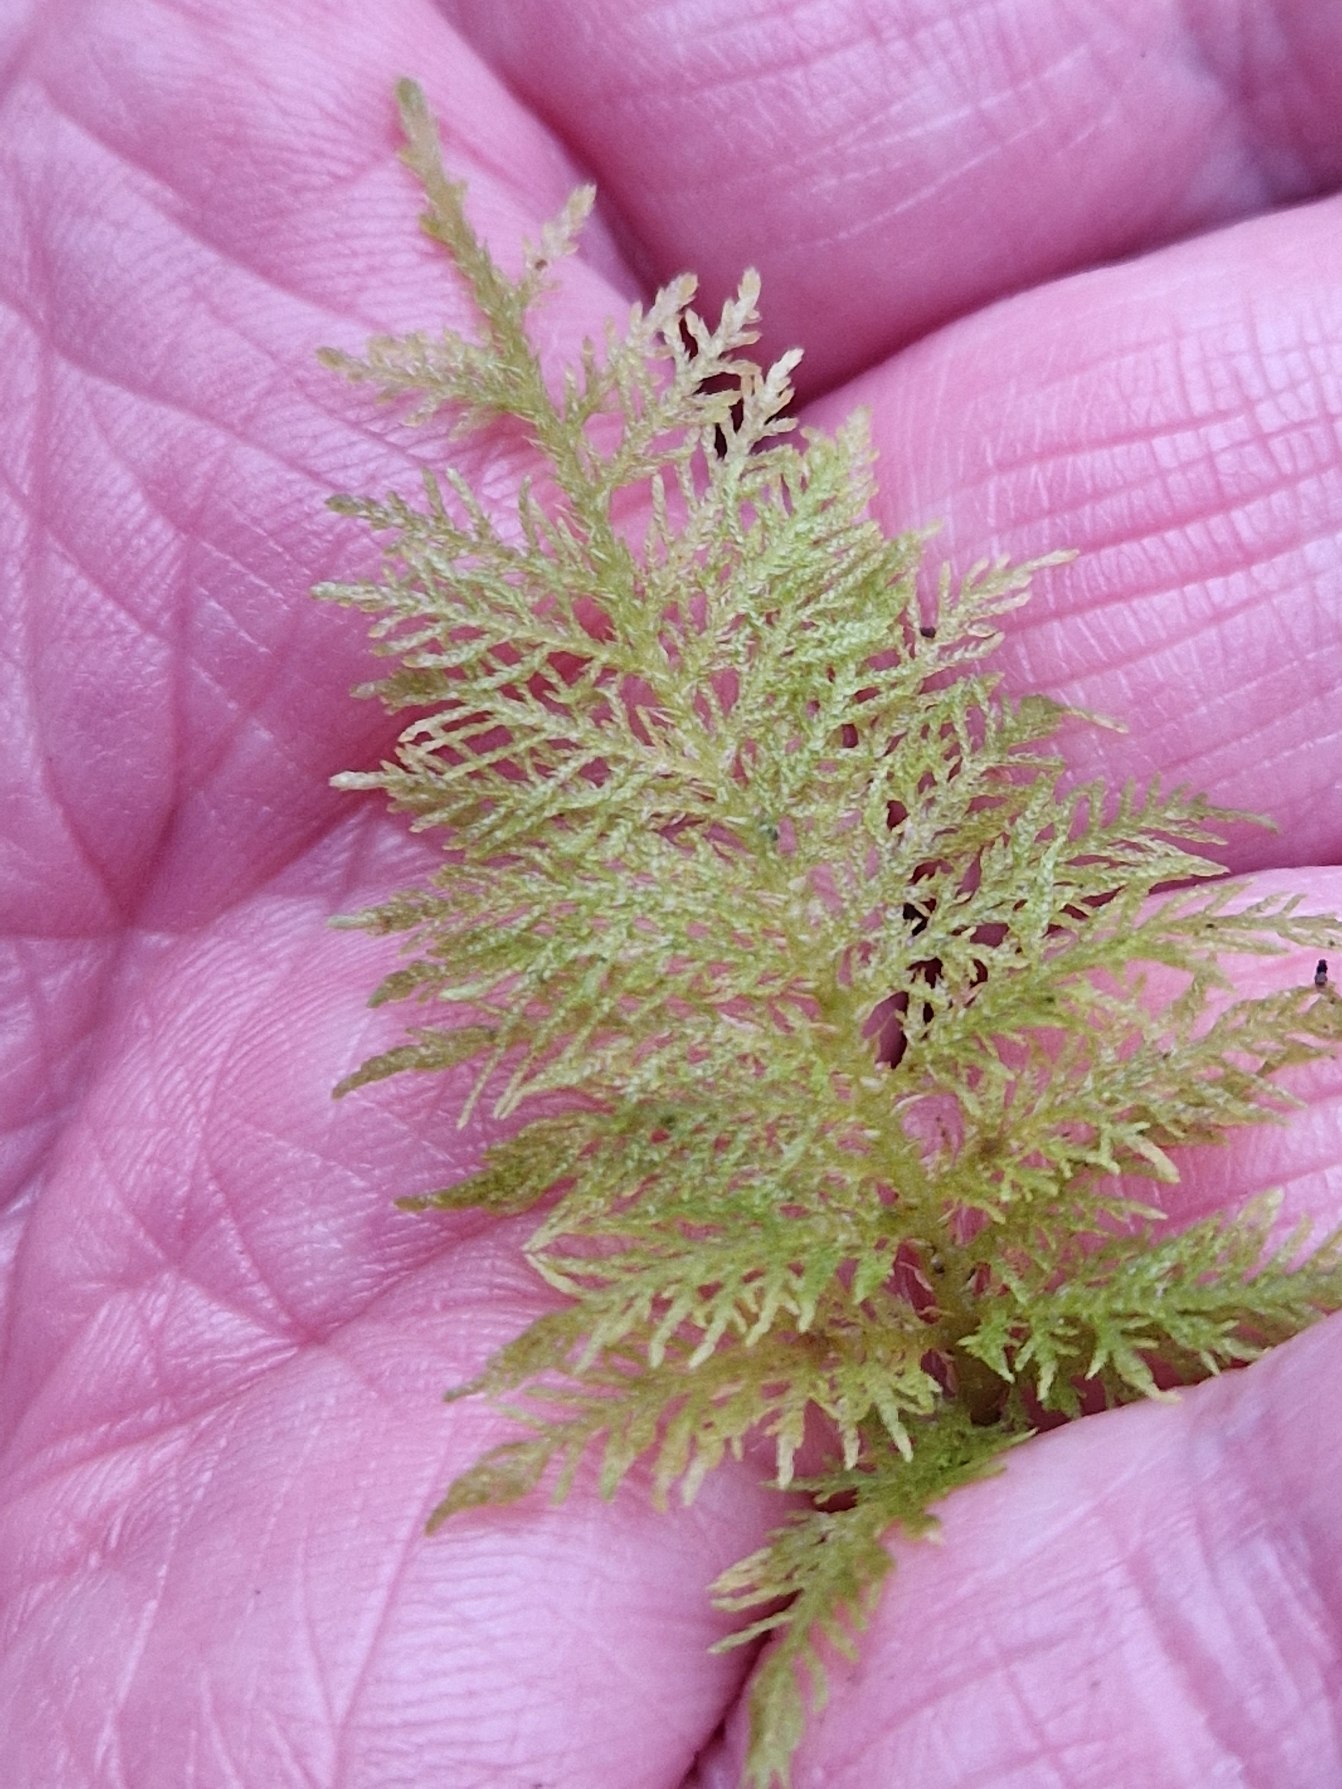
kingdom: Plantae
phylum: Bryophyta
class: Bryopsida
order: Hypnales
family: Thuidiaceae
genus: Thuidium
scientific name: Thuidium tamariscinum
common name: Pryd-bregnemos
